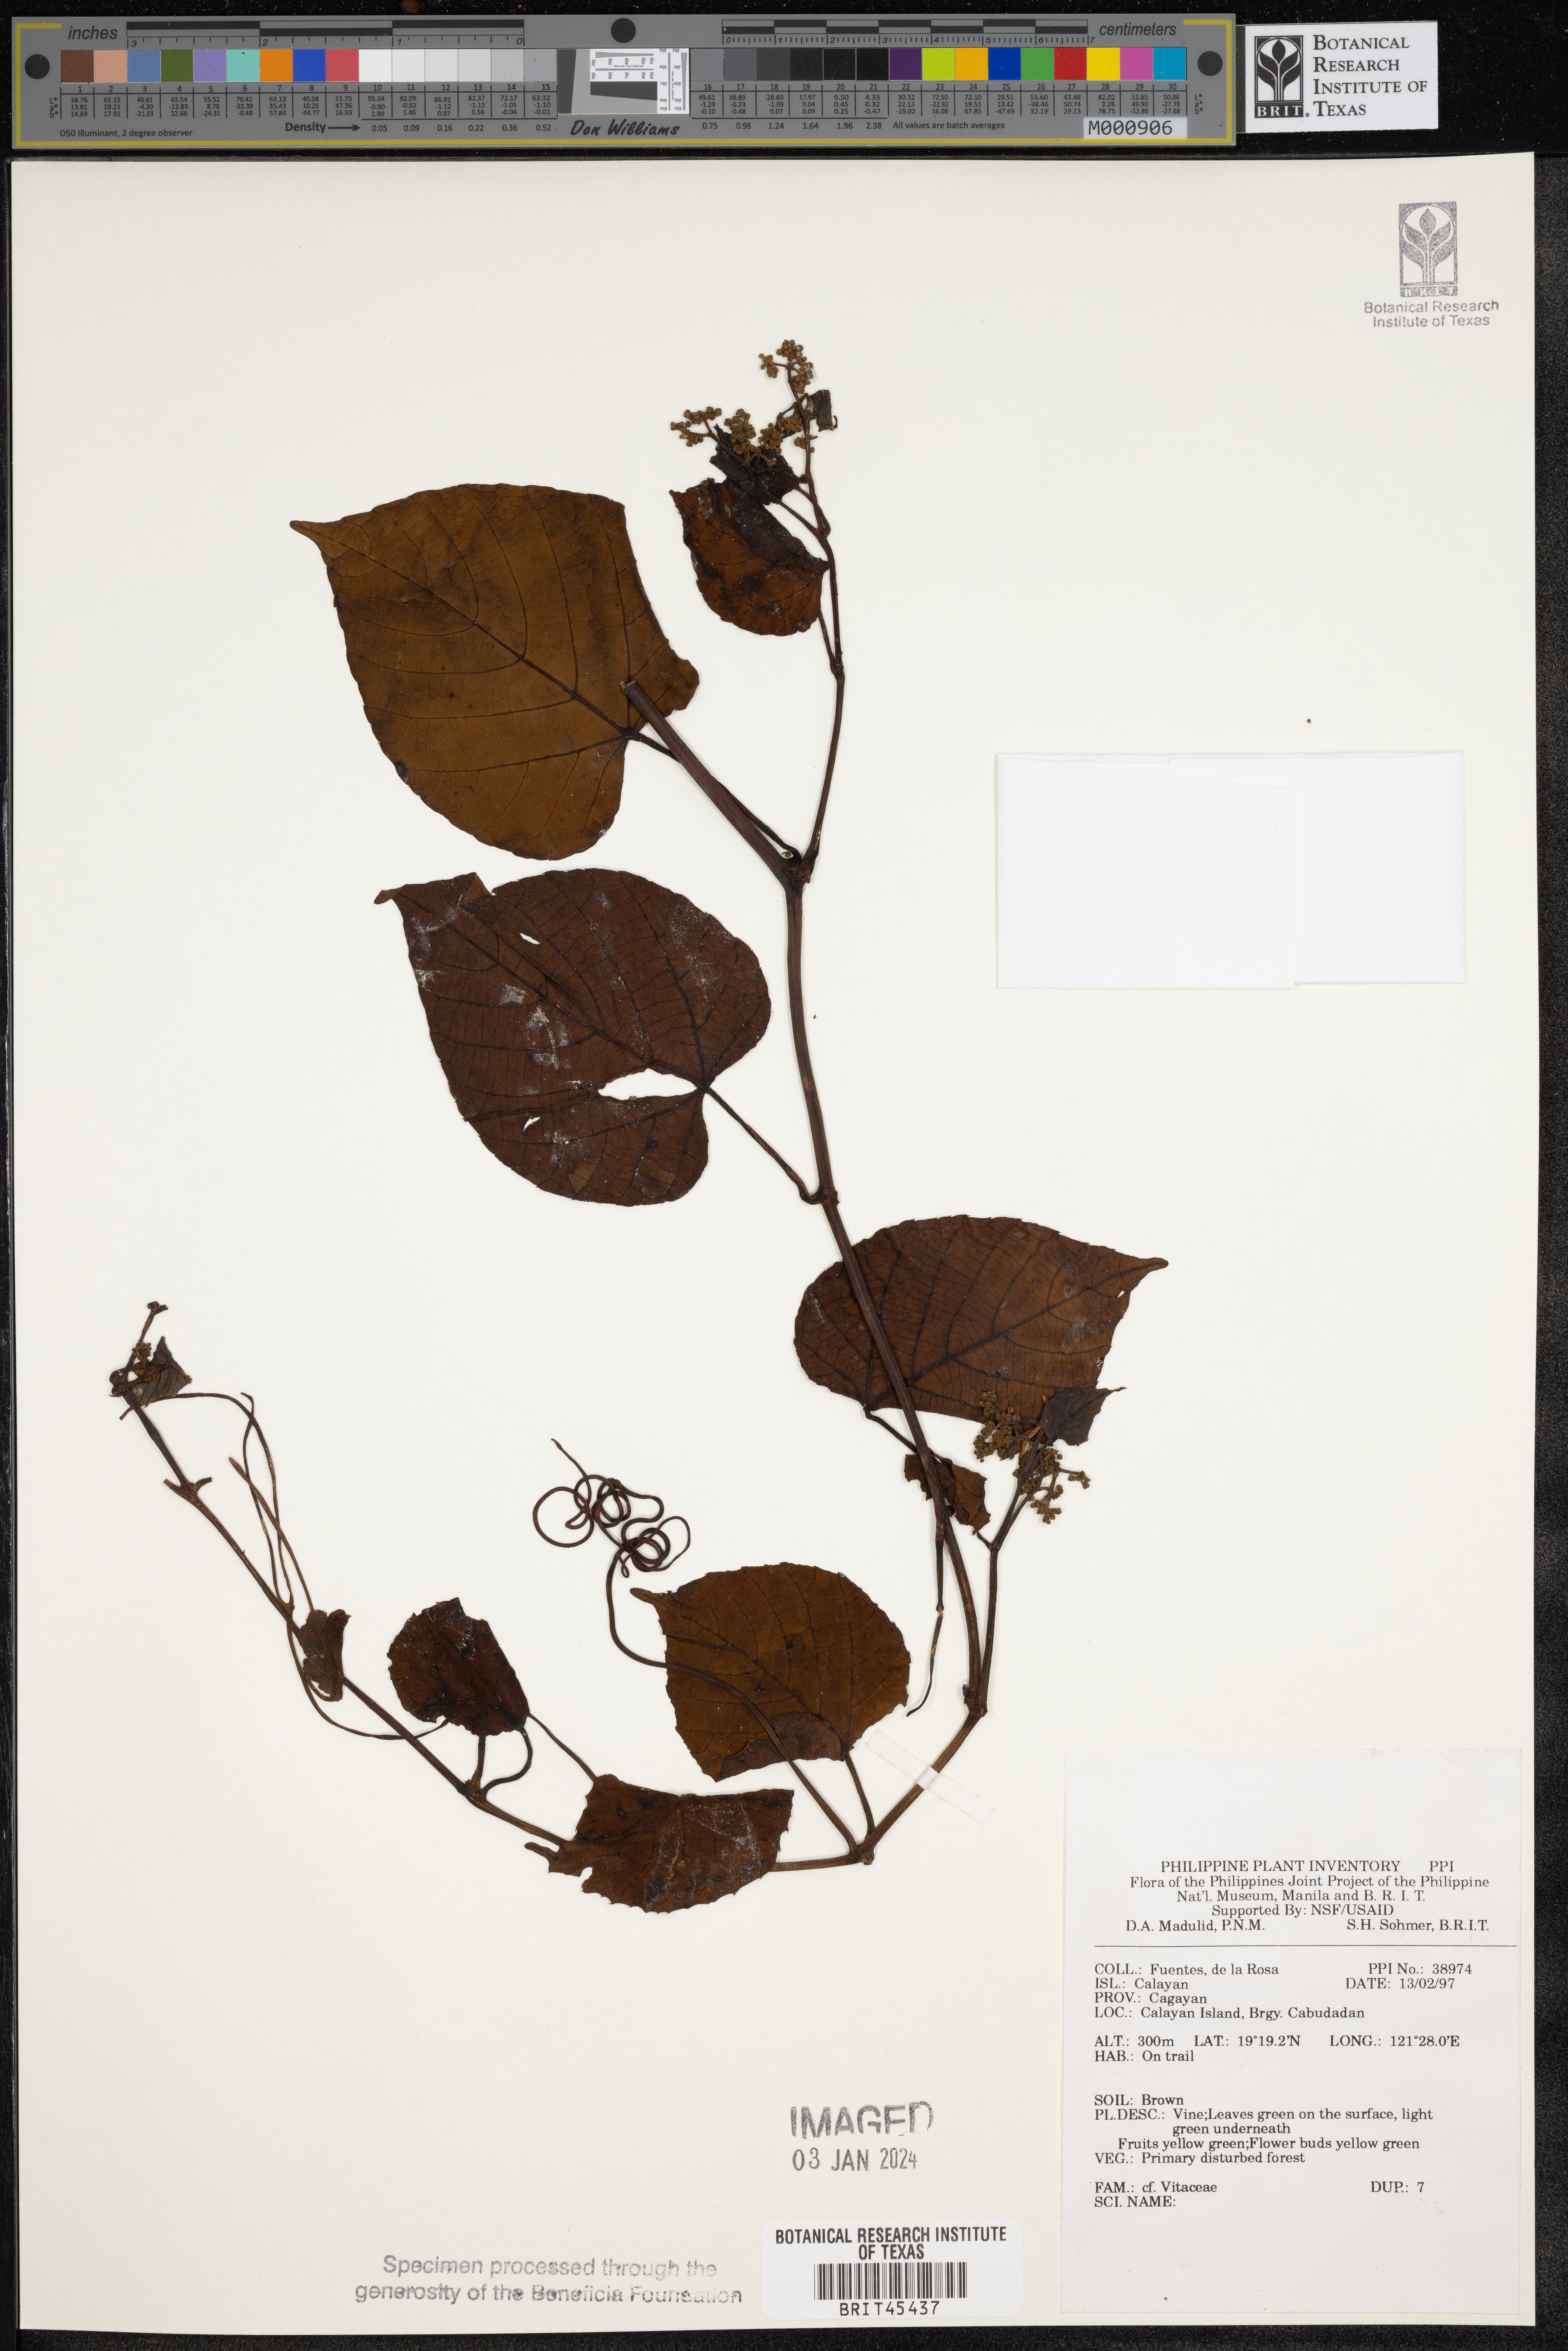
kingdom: Plantae
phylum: Tracheophyta
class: Magnoliopsida
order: Vitales
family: Vitaceae
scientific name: Vitaceae
